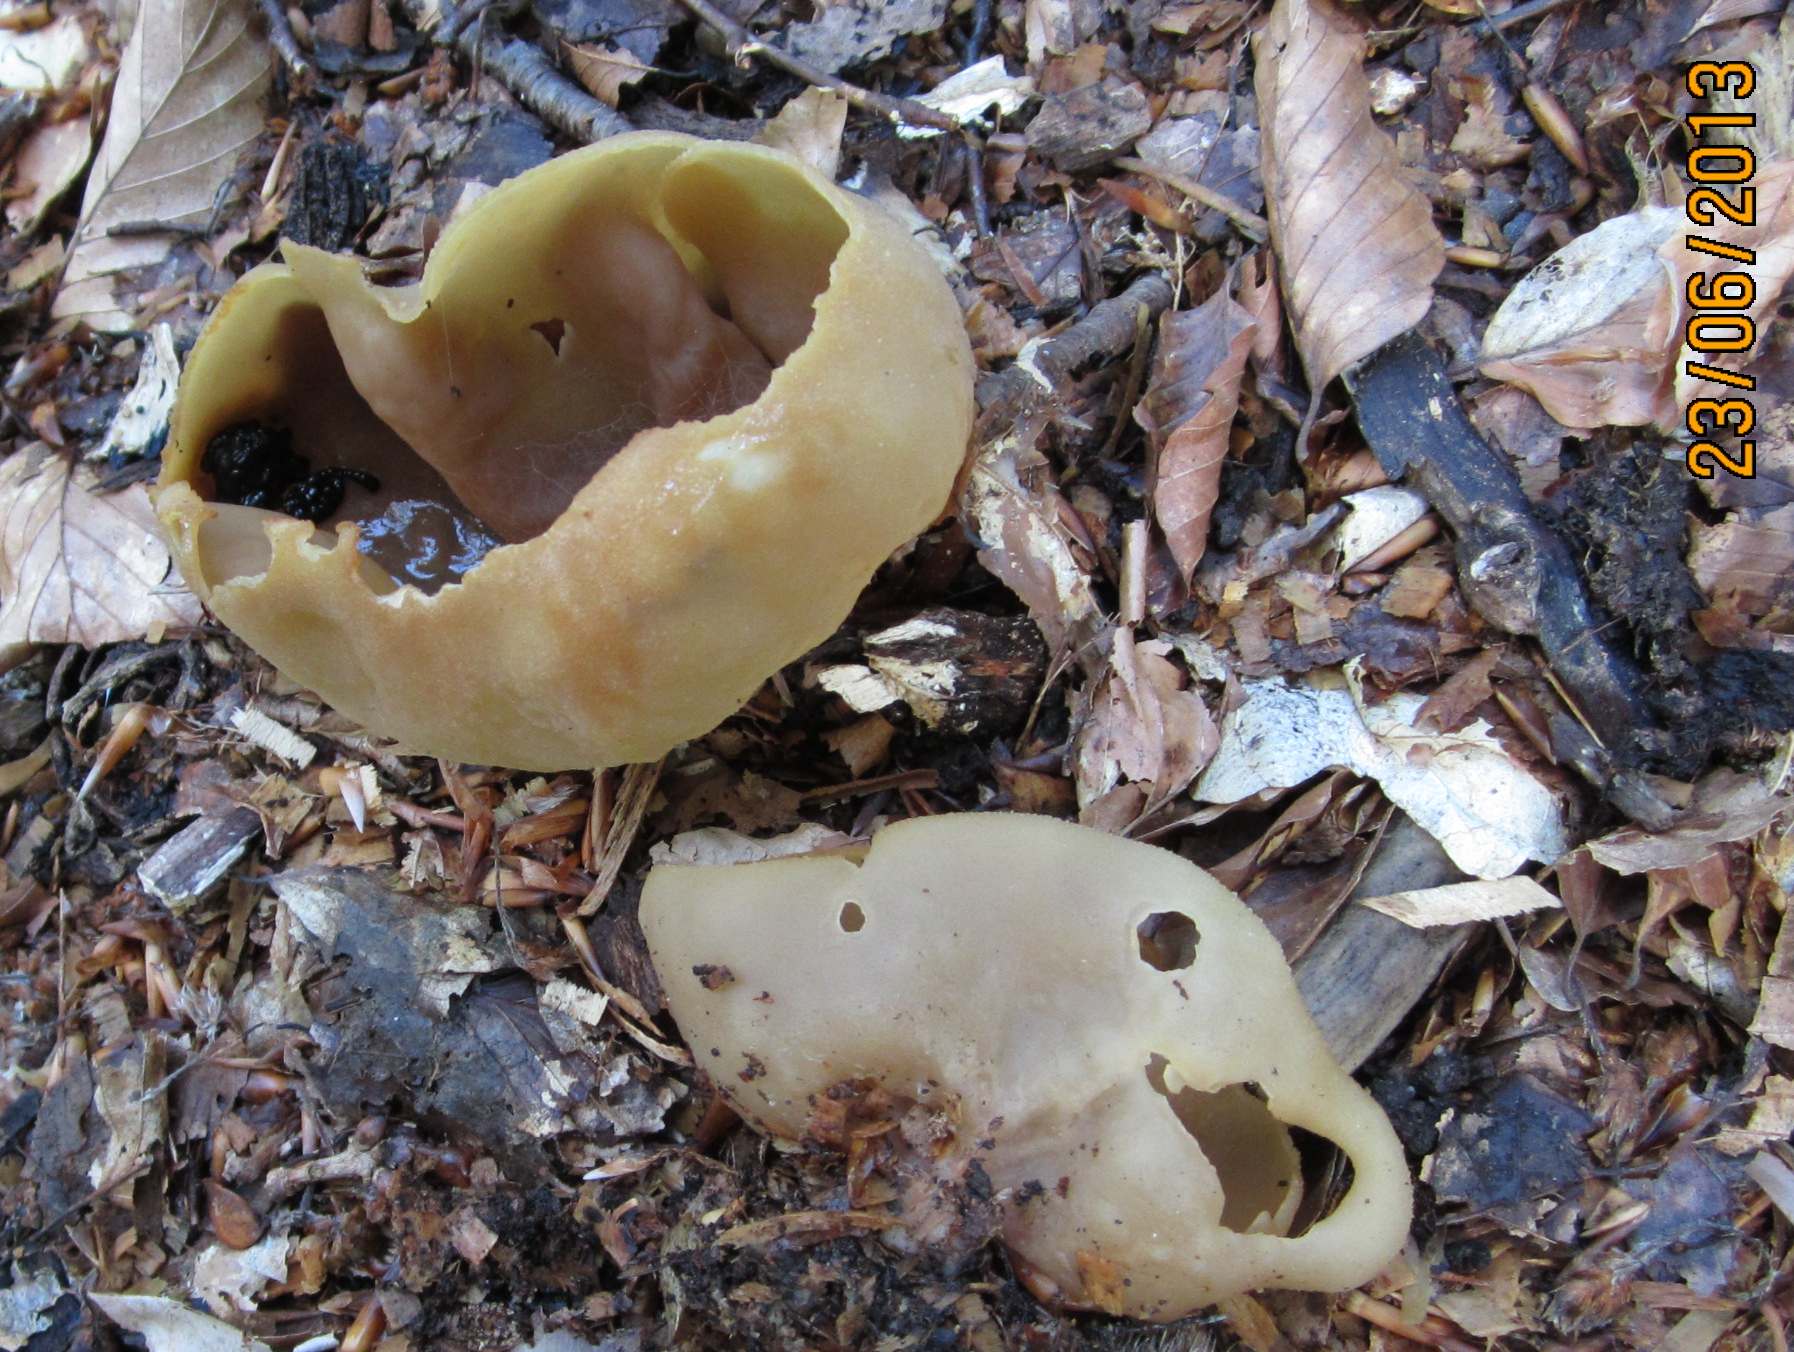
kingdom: Fungi
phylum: Ascomycota
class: Pezizomycetes
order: Pezizales
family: Pezizaceae
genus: Peziza
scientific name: Peziza arvernensis
